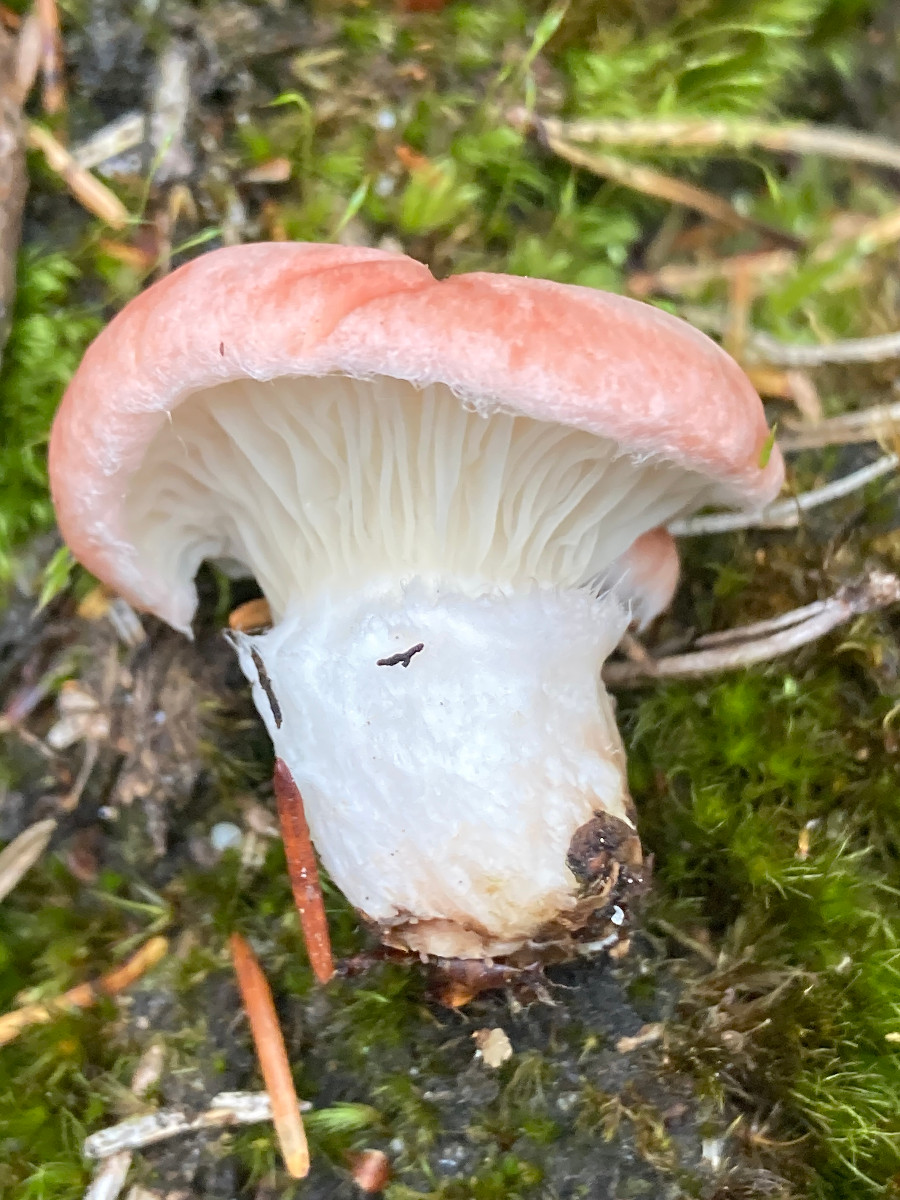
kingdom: Fungi
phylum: Basidiomycota
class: Agaricomycetes
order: Boletales
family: Gomphidiaceae
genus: Gomphidius
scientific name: Gomphidius roseus
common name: rosenrød slimslør
